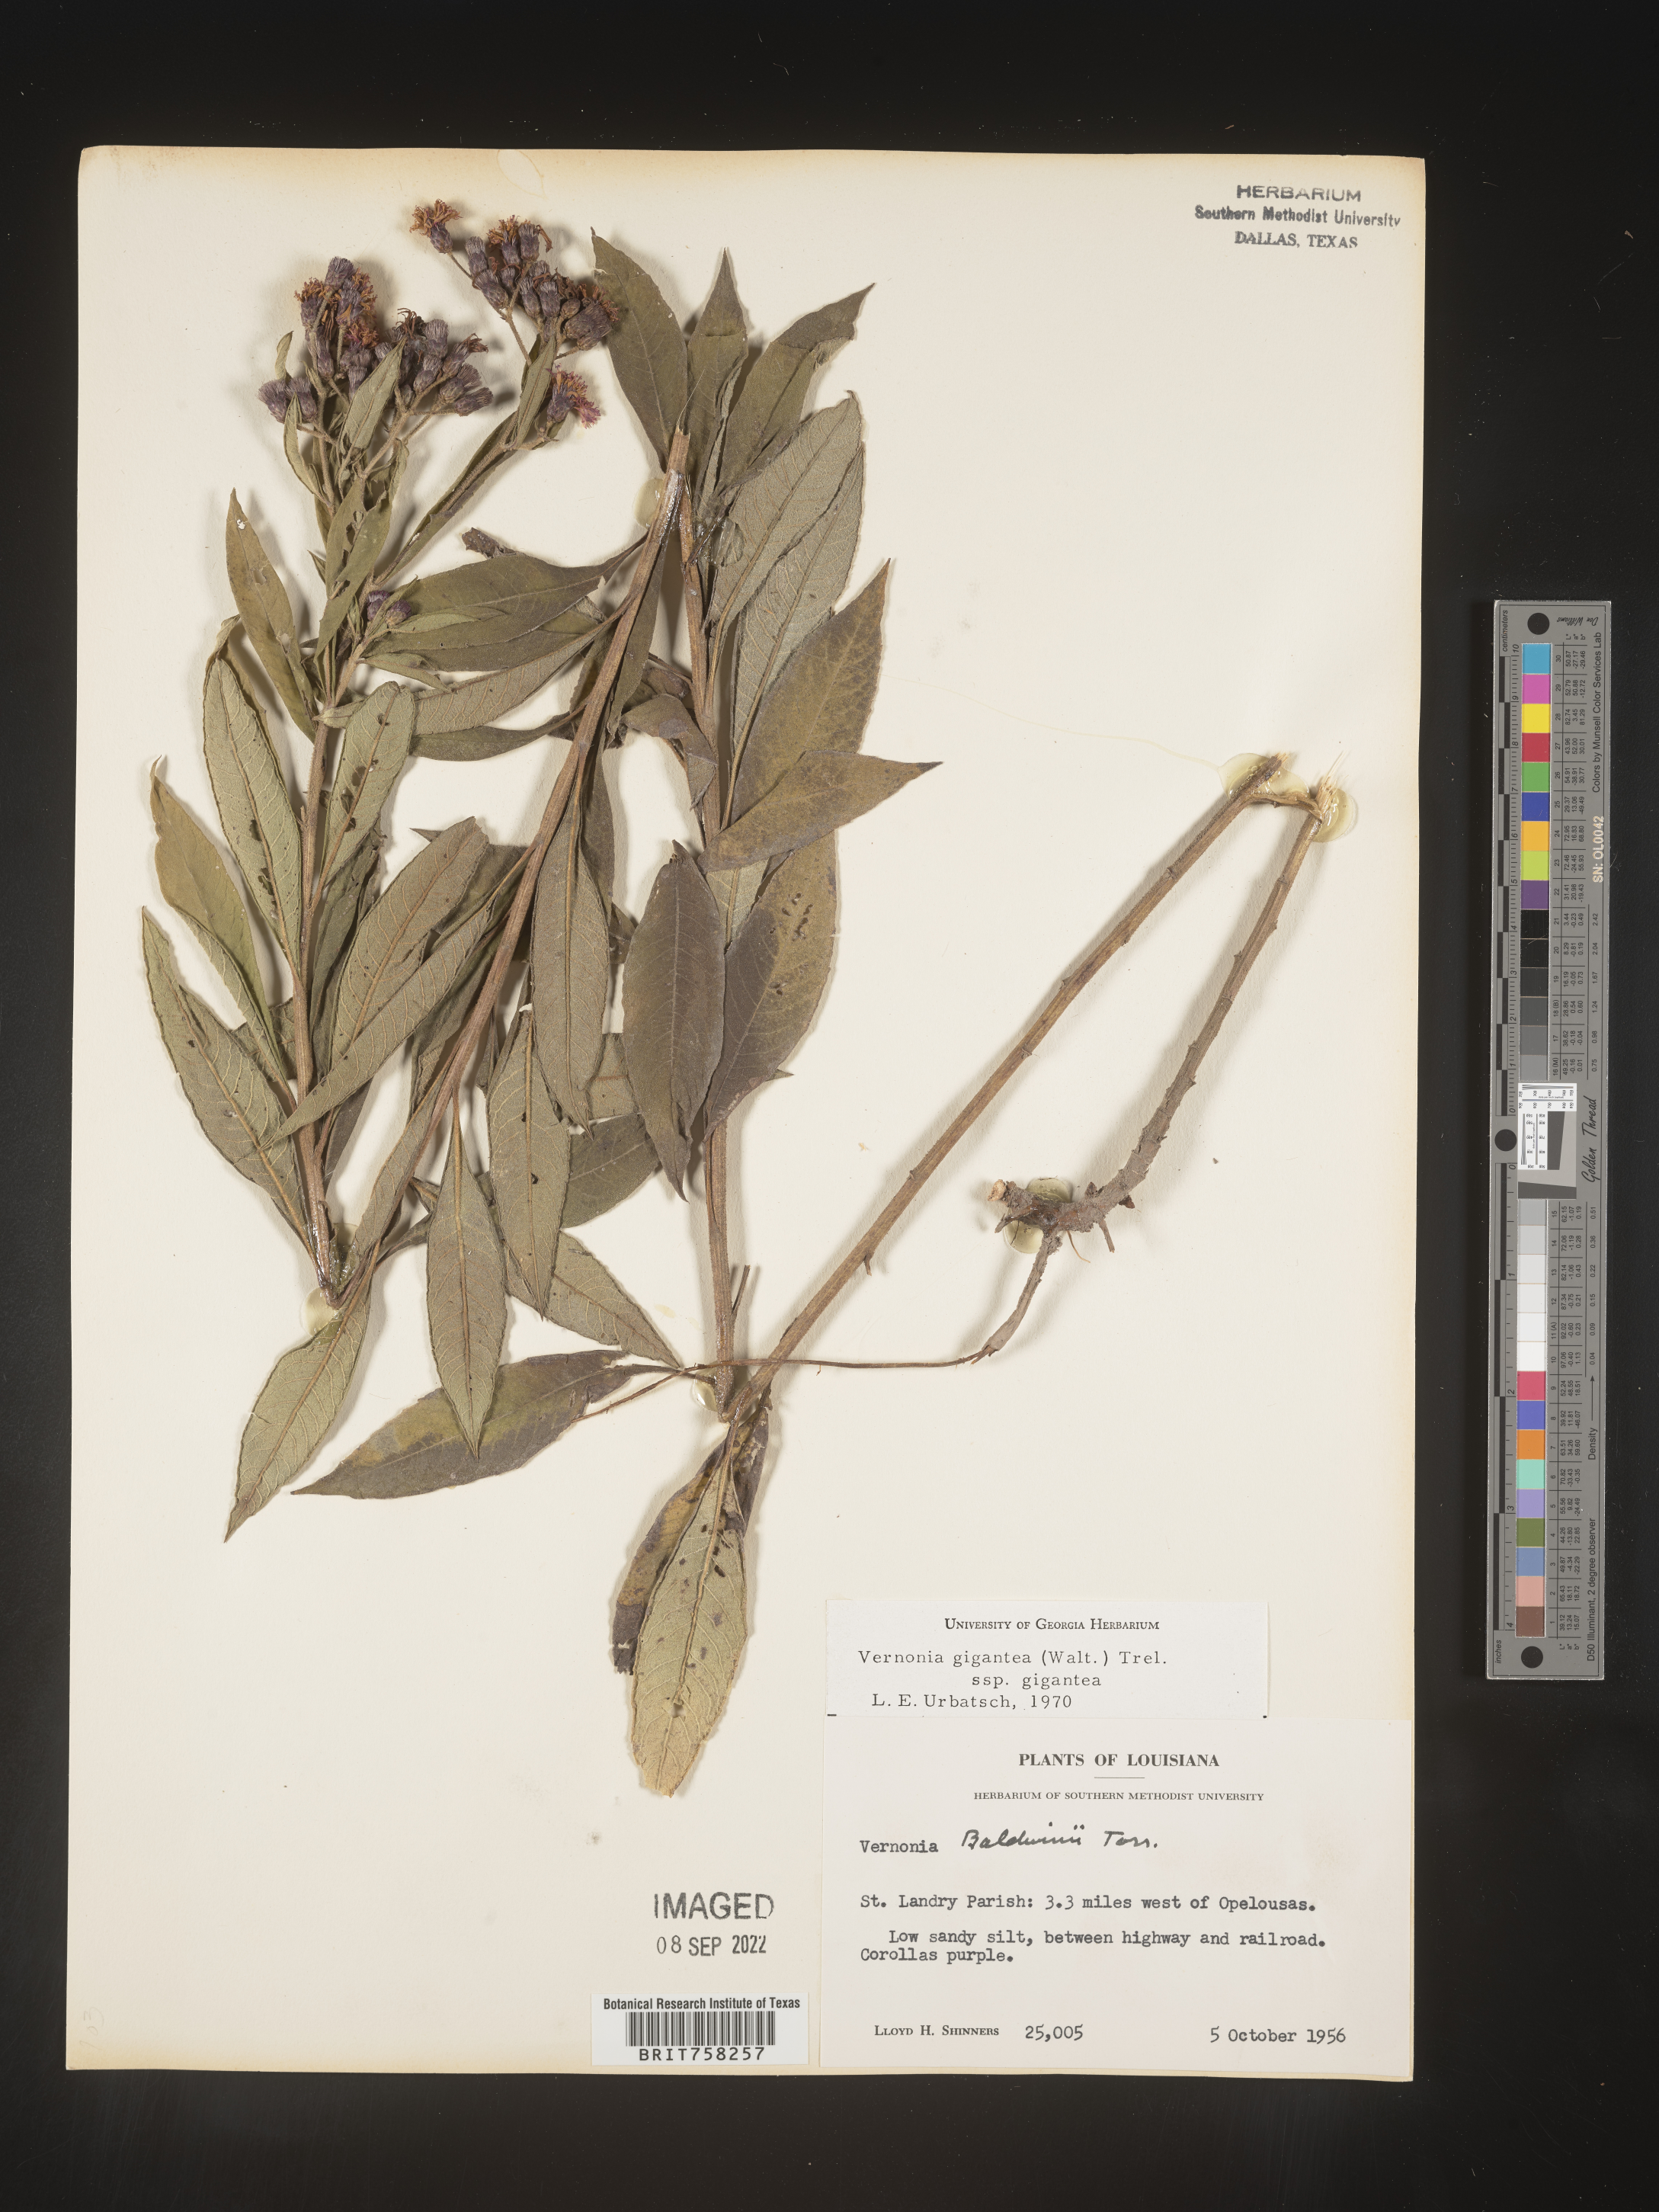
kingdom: Plantae
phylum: Tracheophyta
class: Magnoliopsida
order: Asterales
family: Asteraceae
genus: Vernonia
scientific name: Vernonia gigantea
